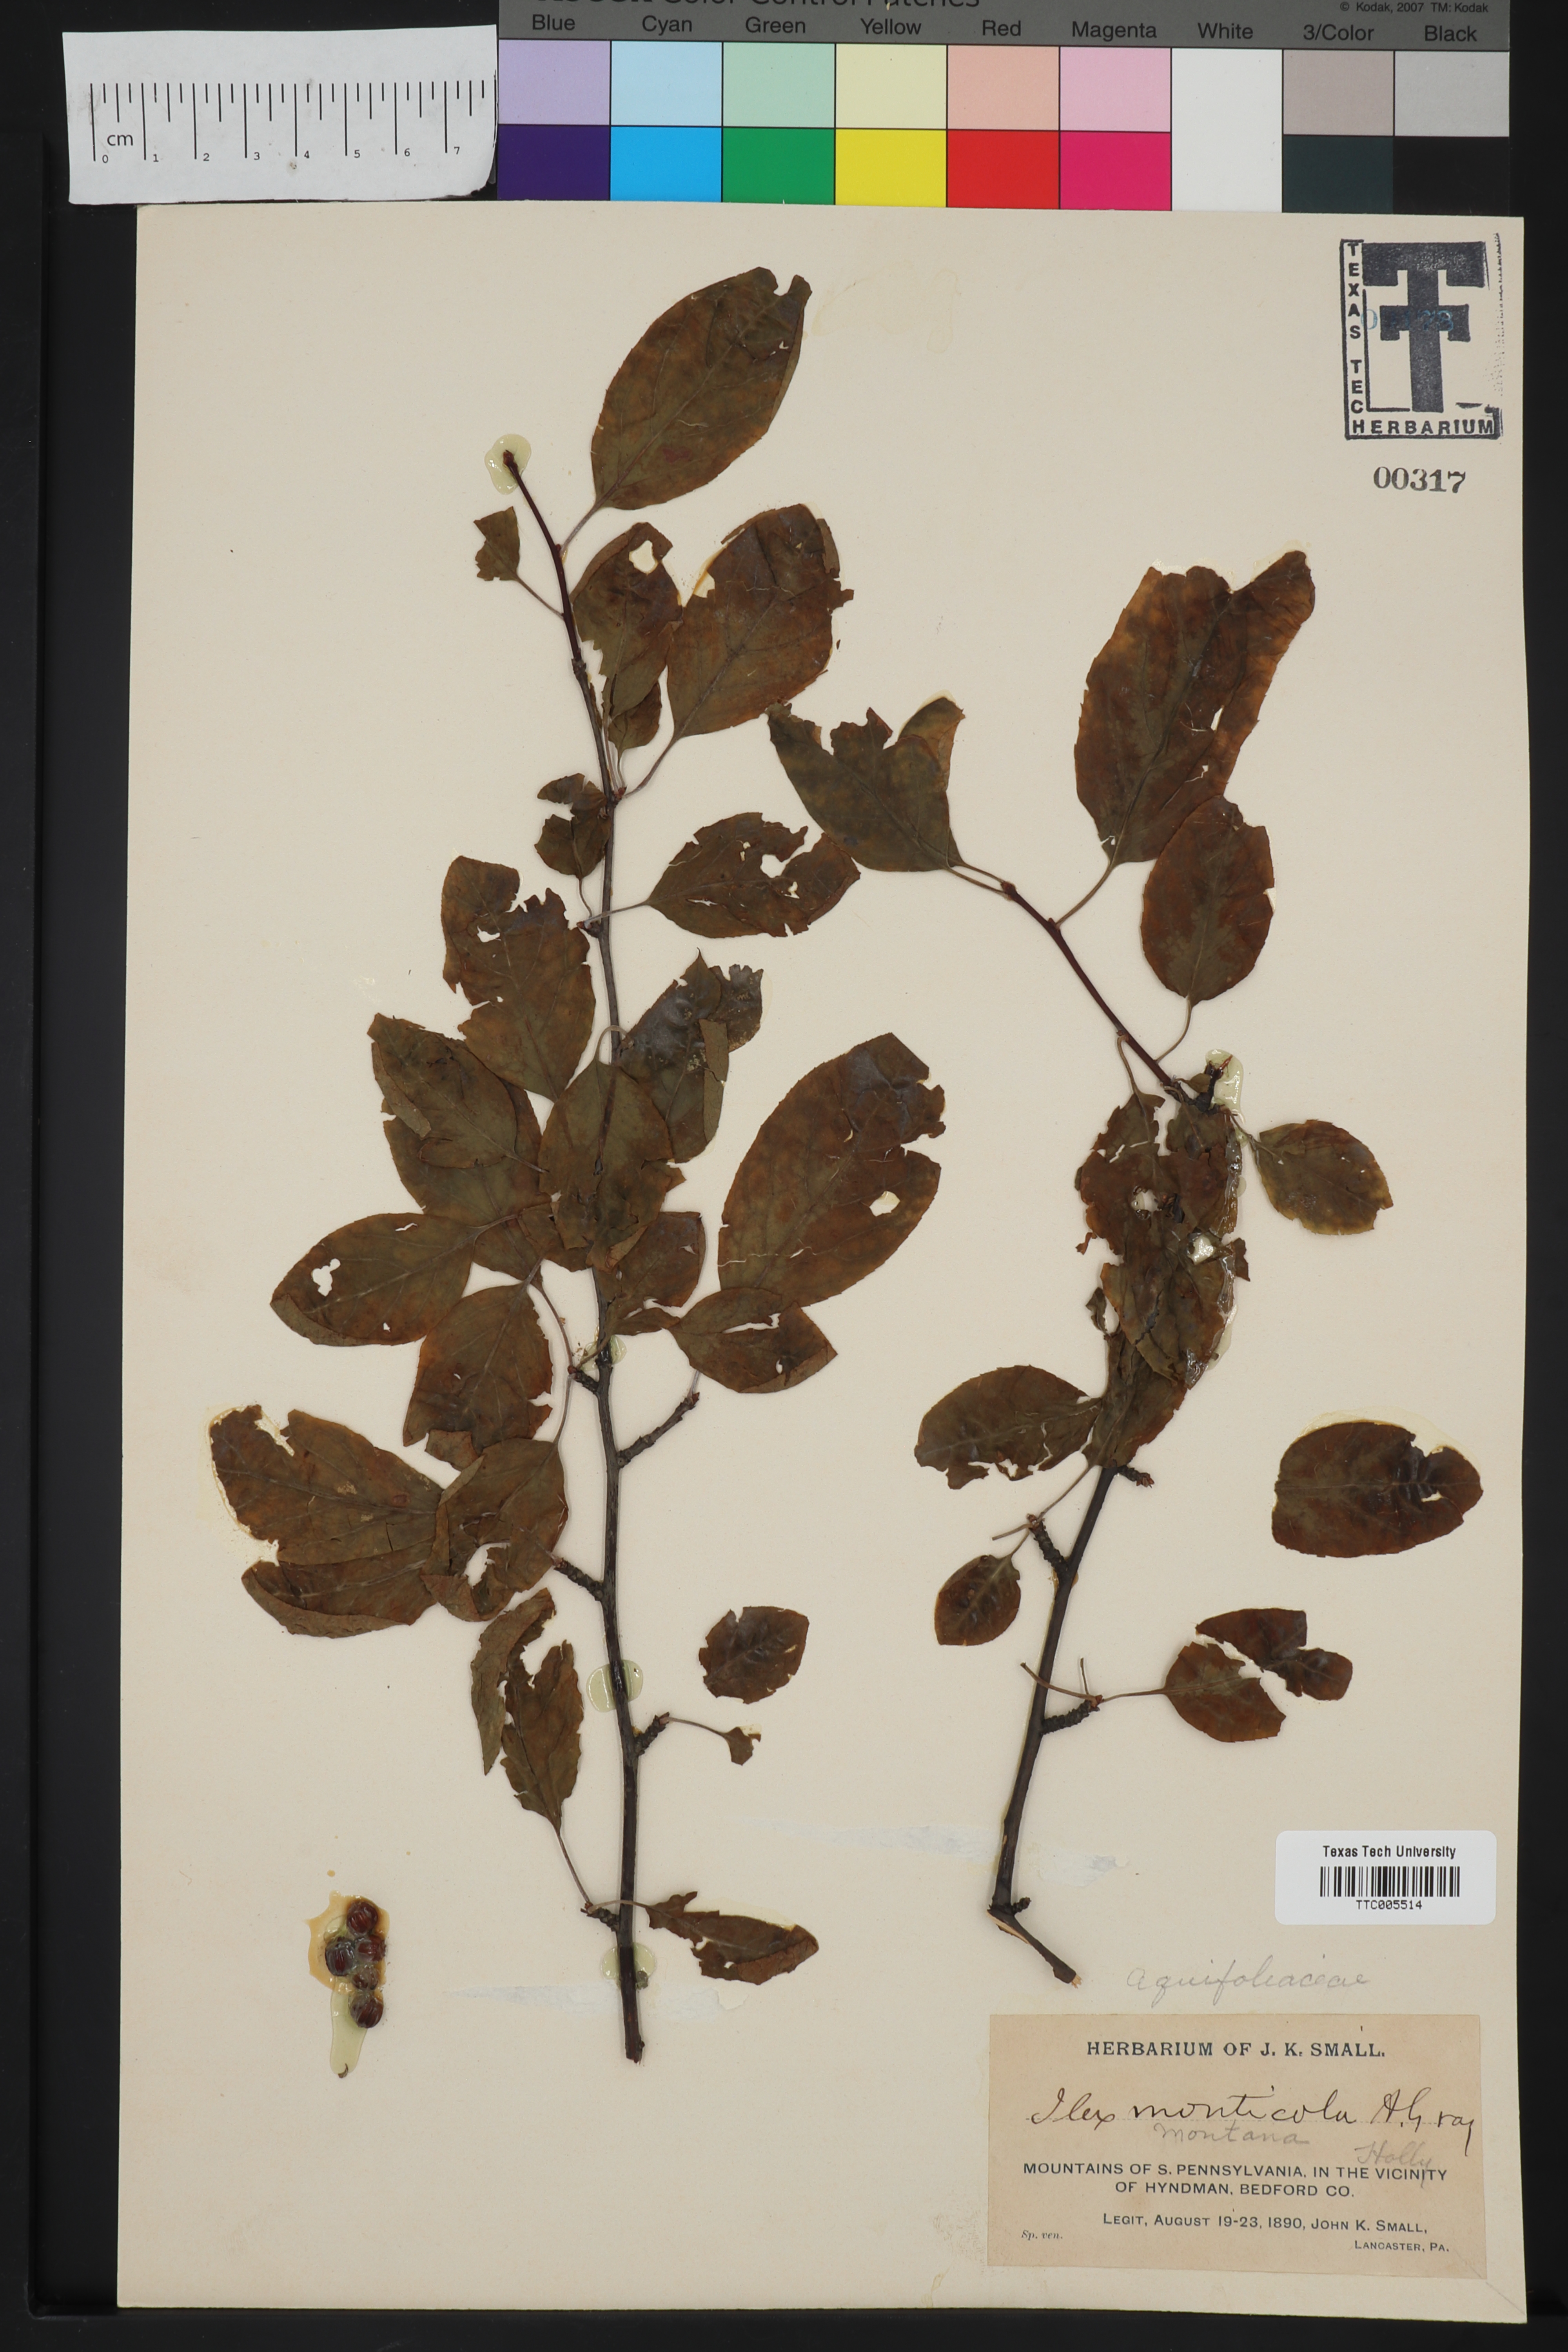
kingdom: Plantae
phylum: Tracheophyta
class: Magnoliopsida
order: Aquifoliales
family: Aquifoliaceae
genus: Ilex
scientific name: Ilex montana
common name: Mountain winterberry
